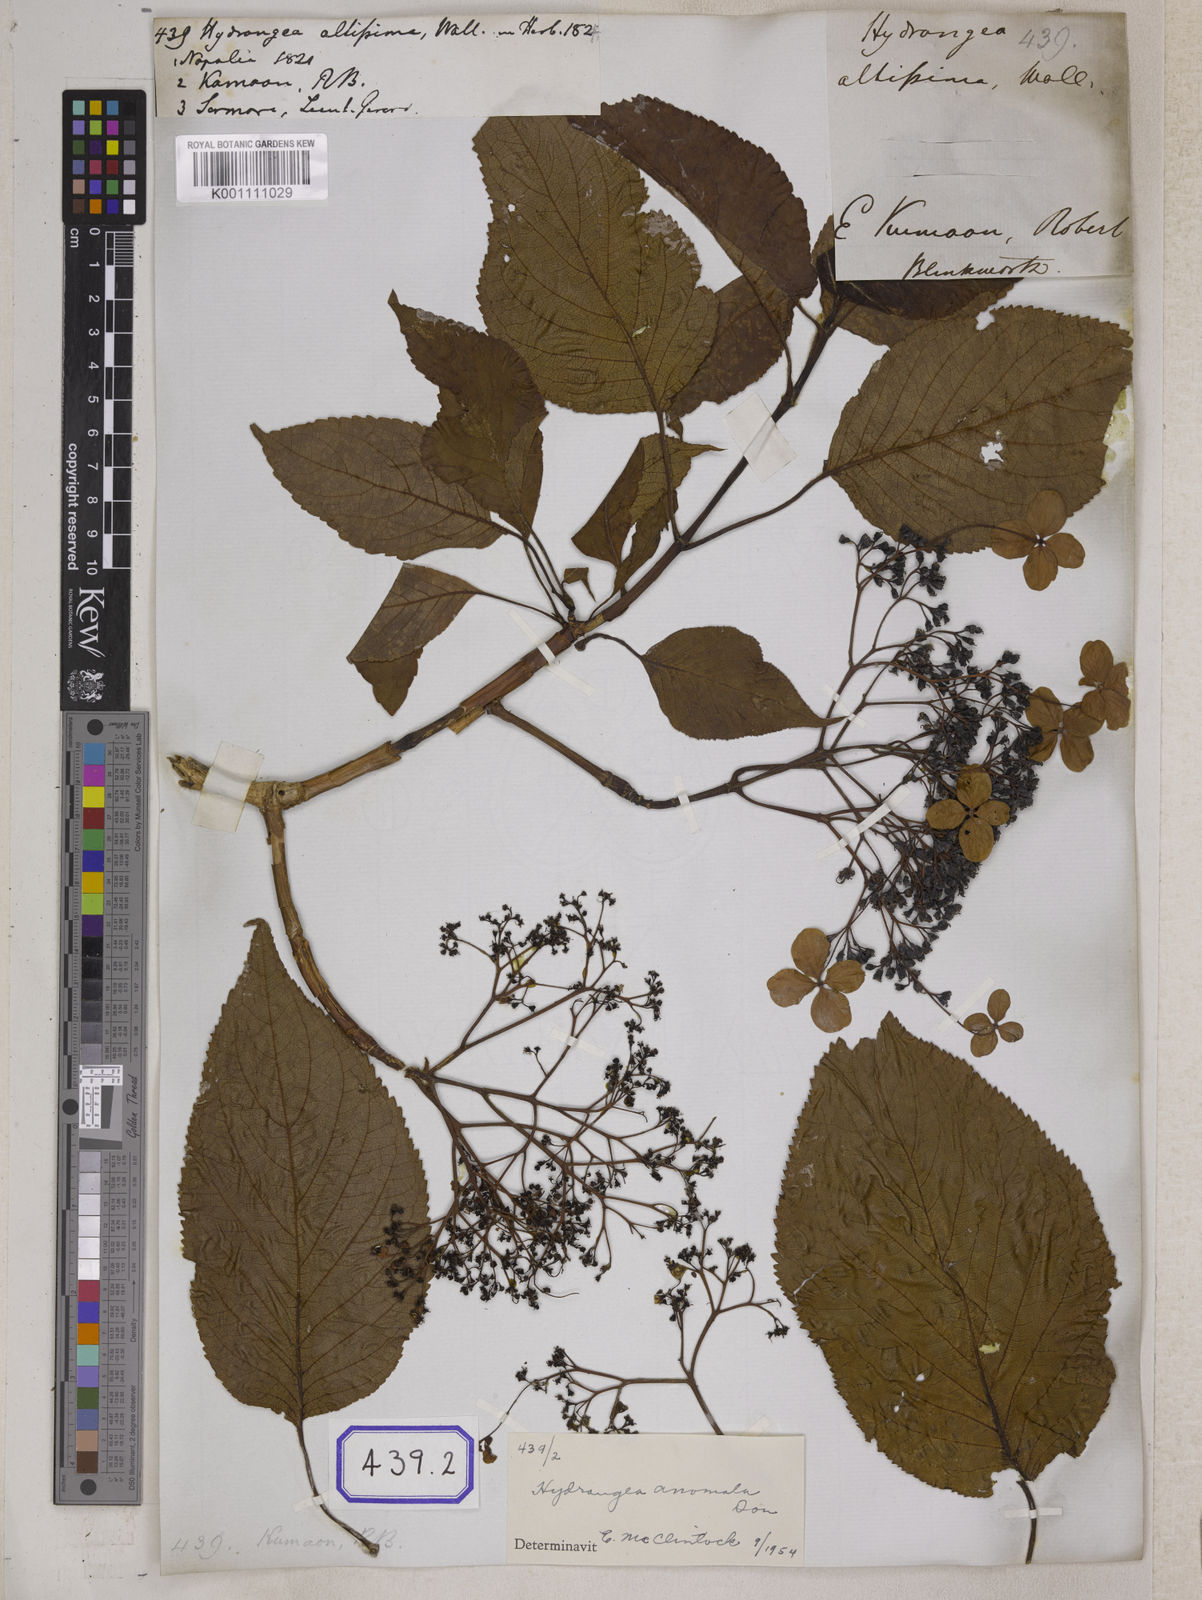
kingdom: Plantae
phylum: Tracheophyta
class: Magnoliopsida
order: Cornales
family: Hydrangeaceae
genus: Hydrangea
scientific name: Hydrangea anomala
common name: Japanese climbing-hydrangea
